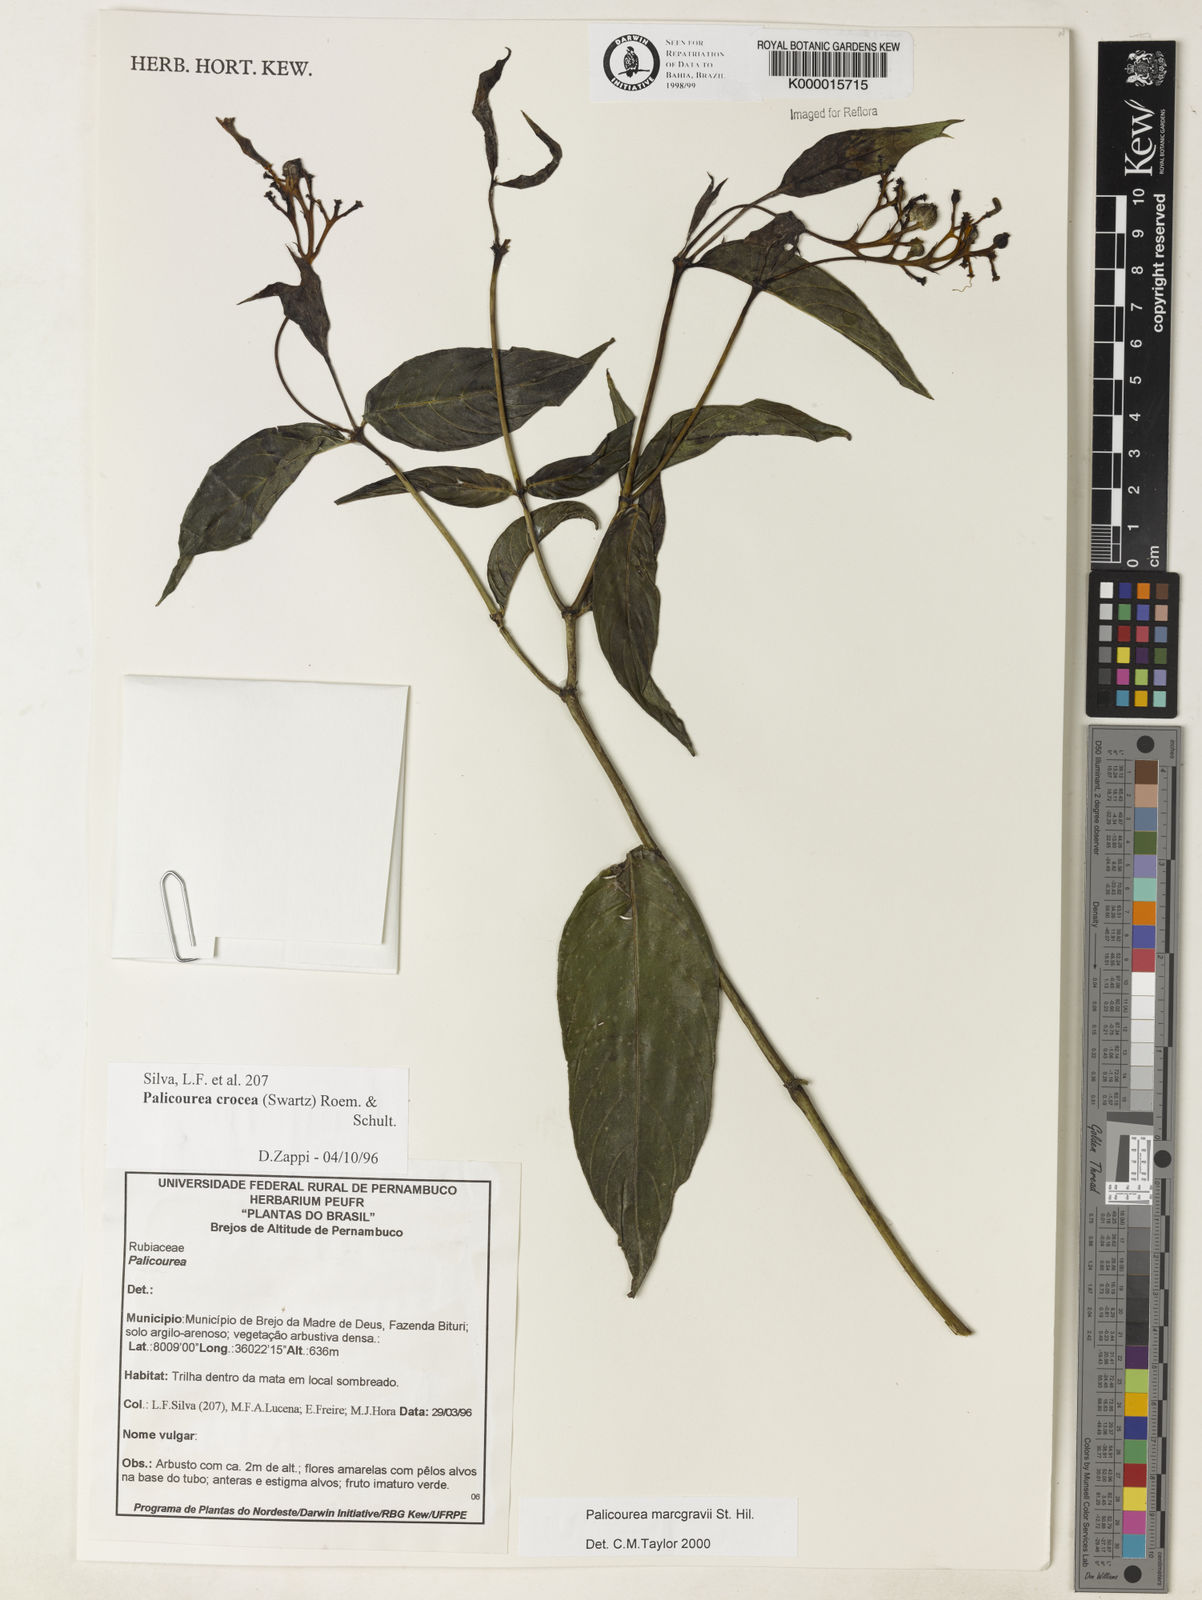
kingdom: Plantae
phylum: Tracheophyta
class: Magnoliopsida
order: Gentianales
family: Rubiaceae
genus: Palicourea
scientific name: Palicourea marcgravii
